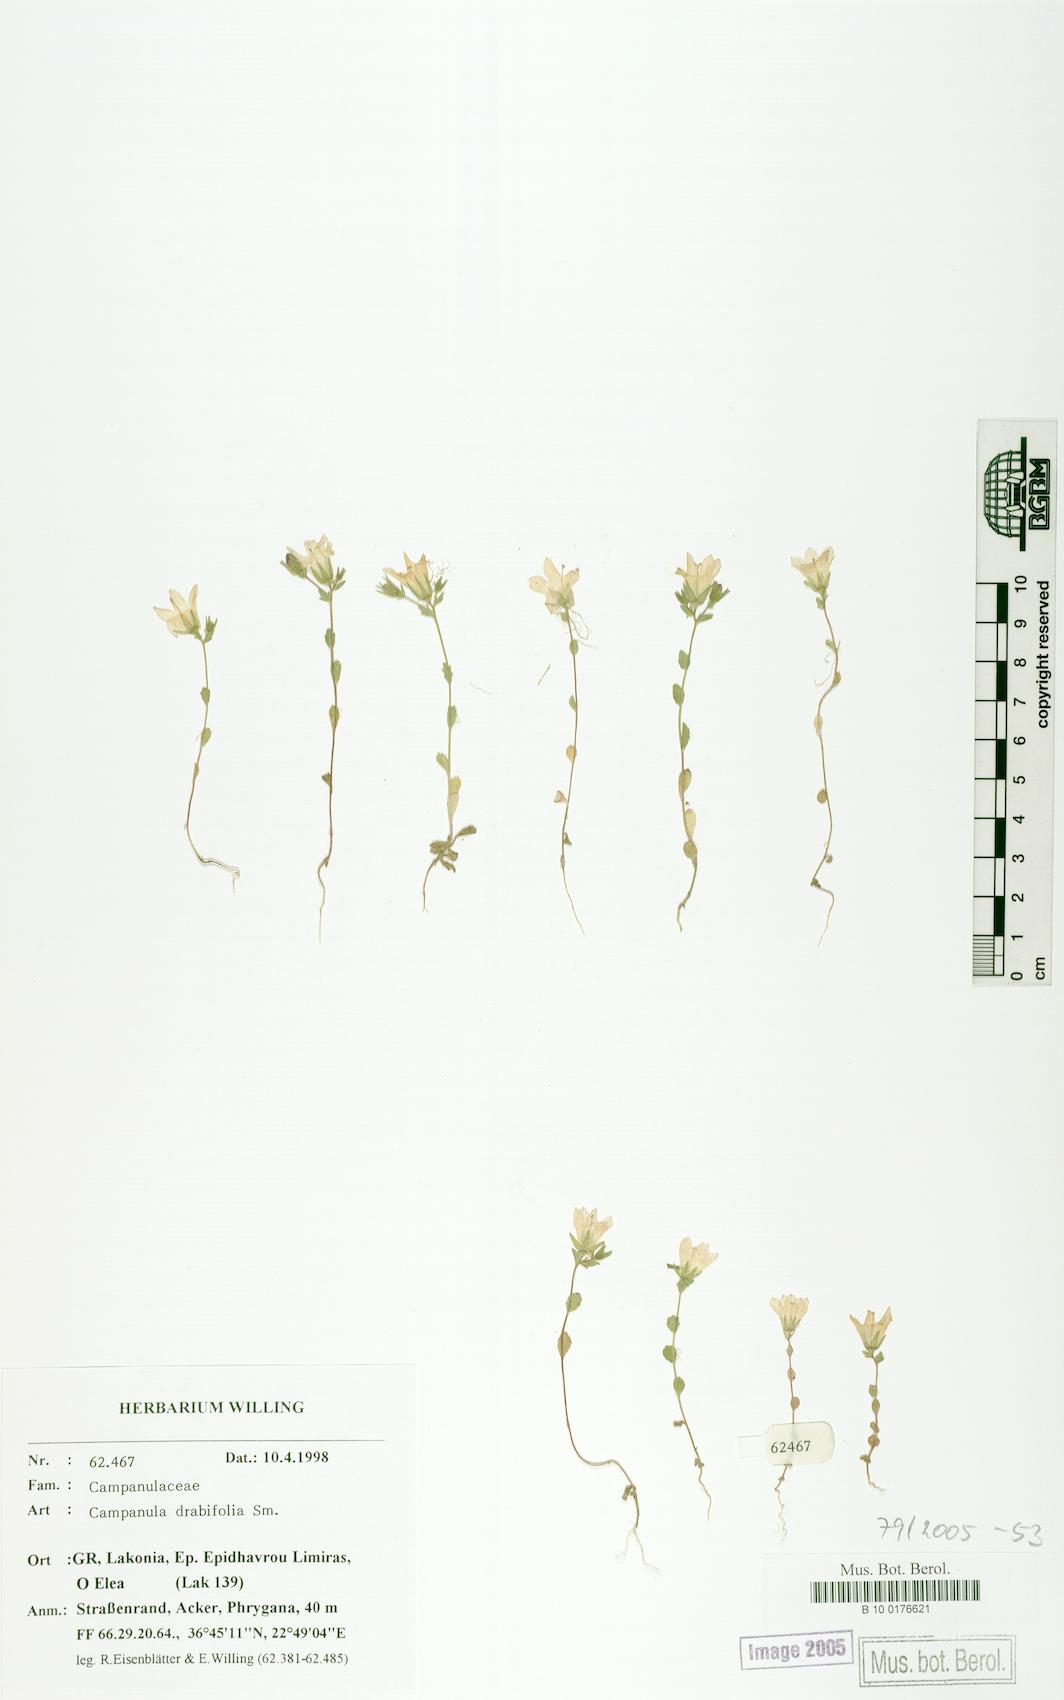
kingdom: Plantae
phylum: Tracheophyta
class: Magnoliopsida
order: Asterales
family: Campanulaceae
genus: Campanula
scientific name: Campanula drabifolia
